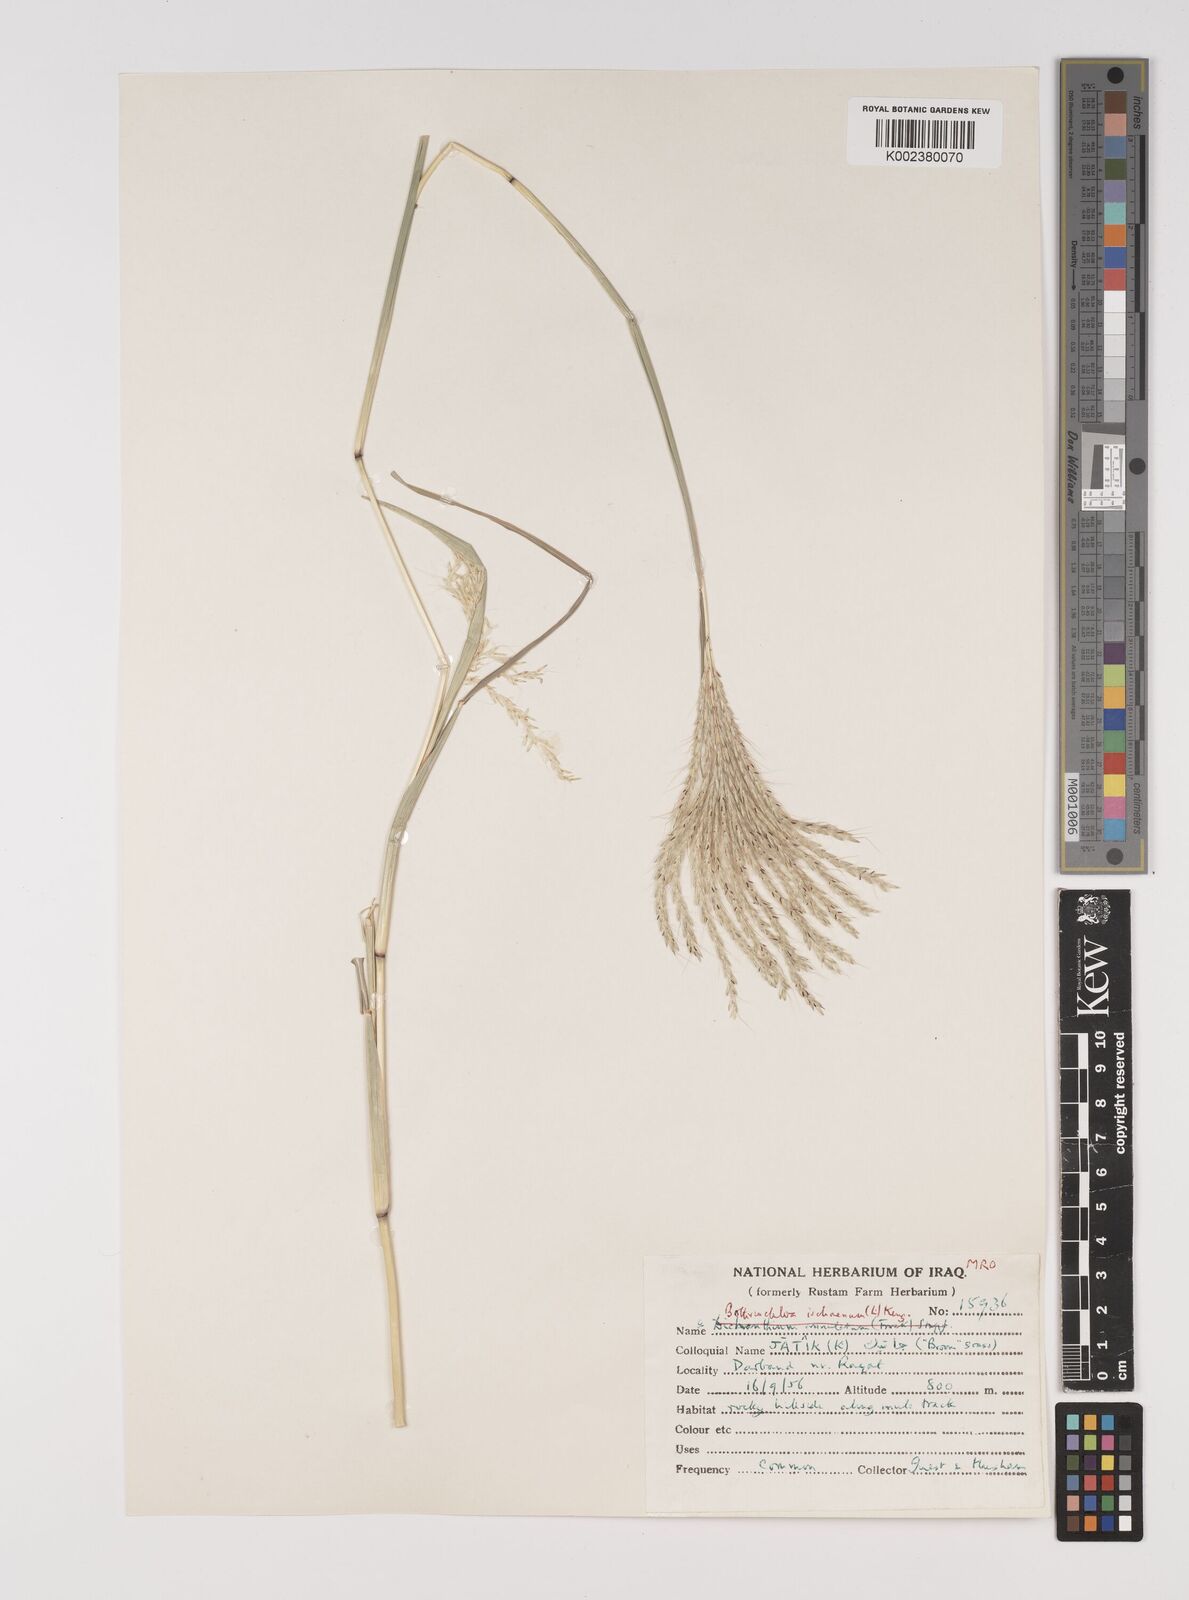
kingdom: Plantae
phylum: Tracheophyta
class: Liliopsida
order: Poales
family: Poaceae
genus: Bothriochloa
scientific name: Bothriochloa ischaemum
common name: Yellow bluestem
